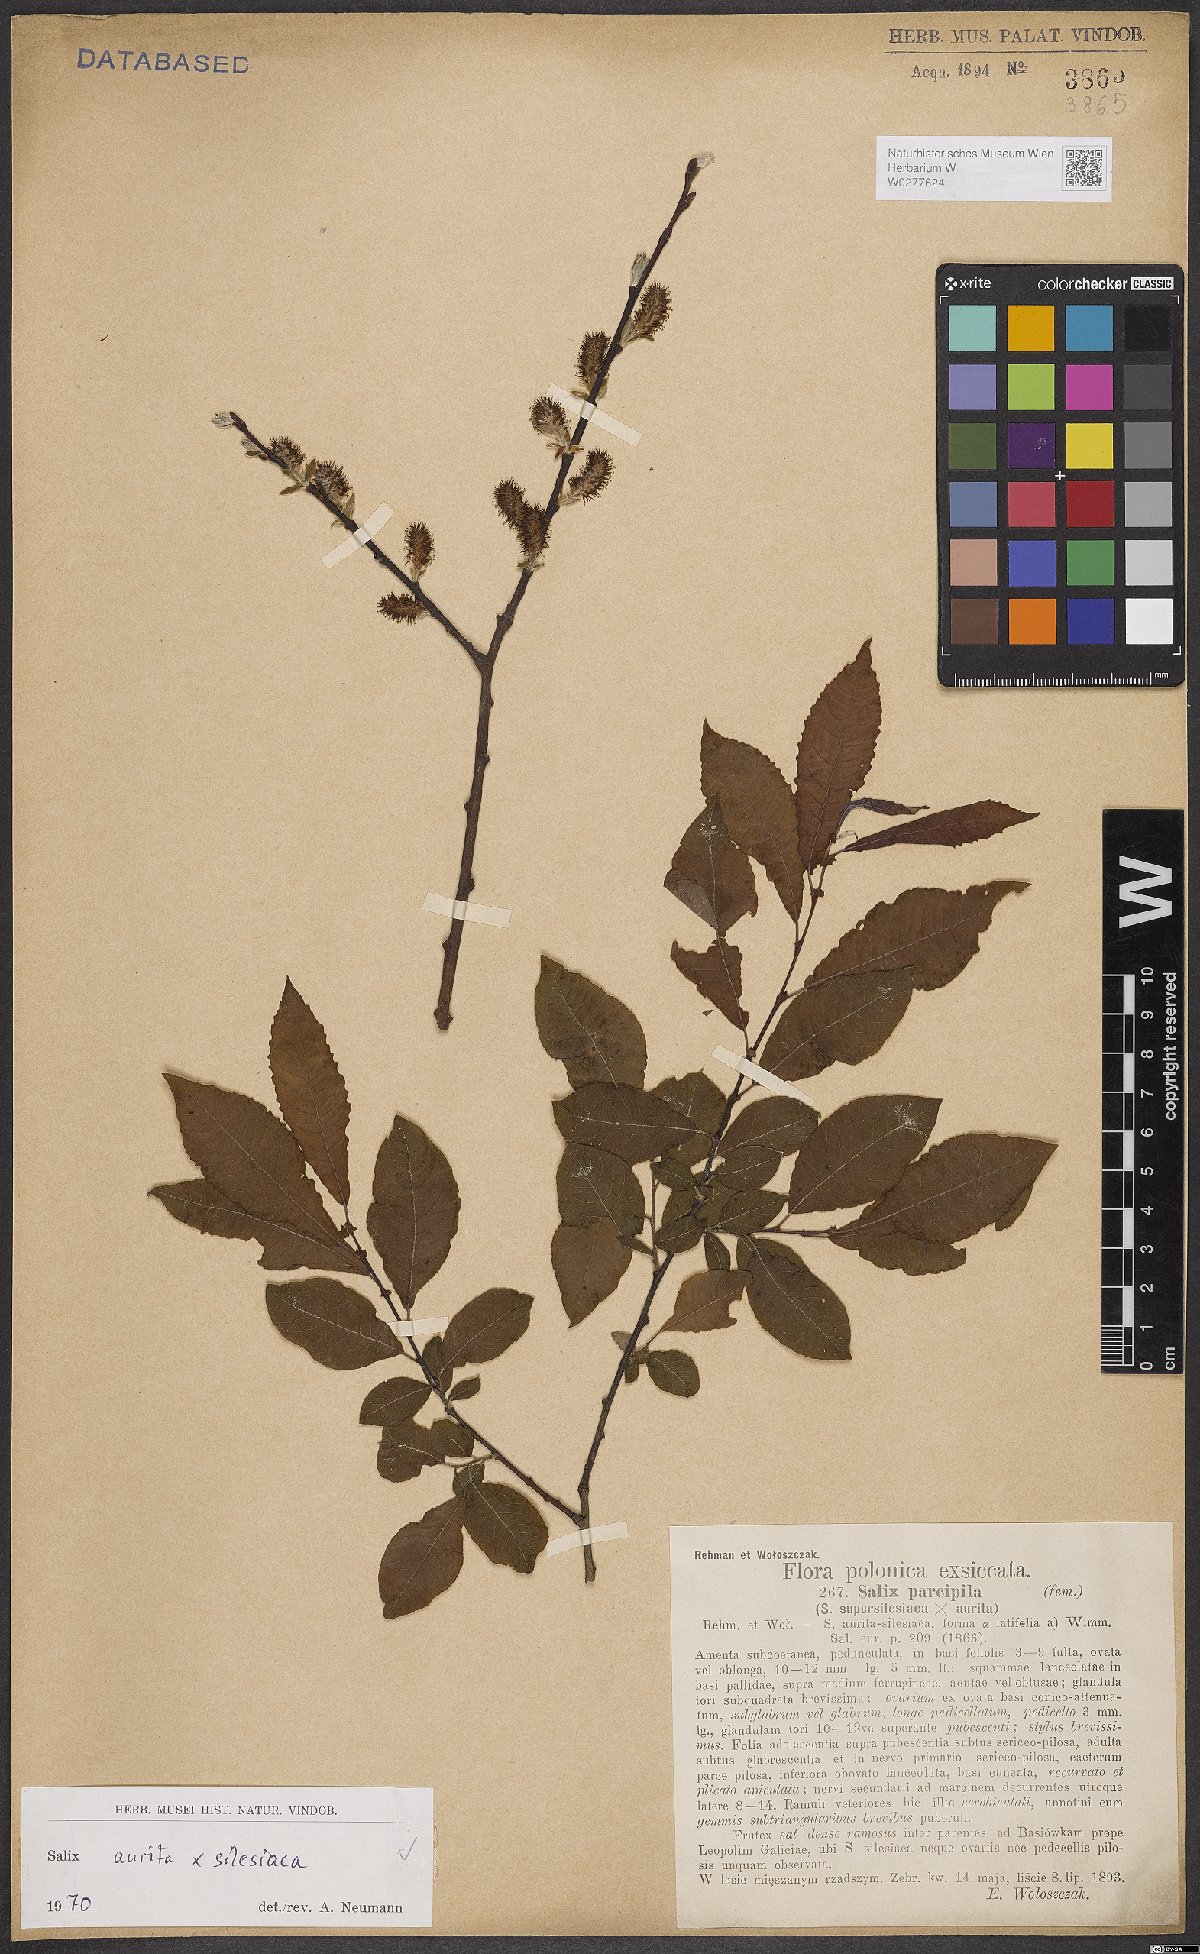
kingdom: Plantae
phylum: Tracheophyta
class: Magnoliopsida
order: Malpighiales
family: Salicaceae
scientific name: Salicaceae
